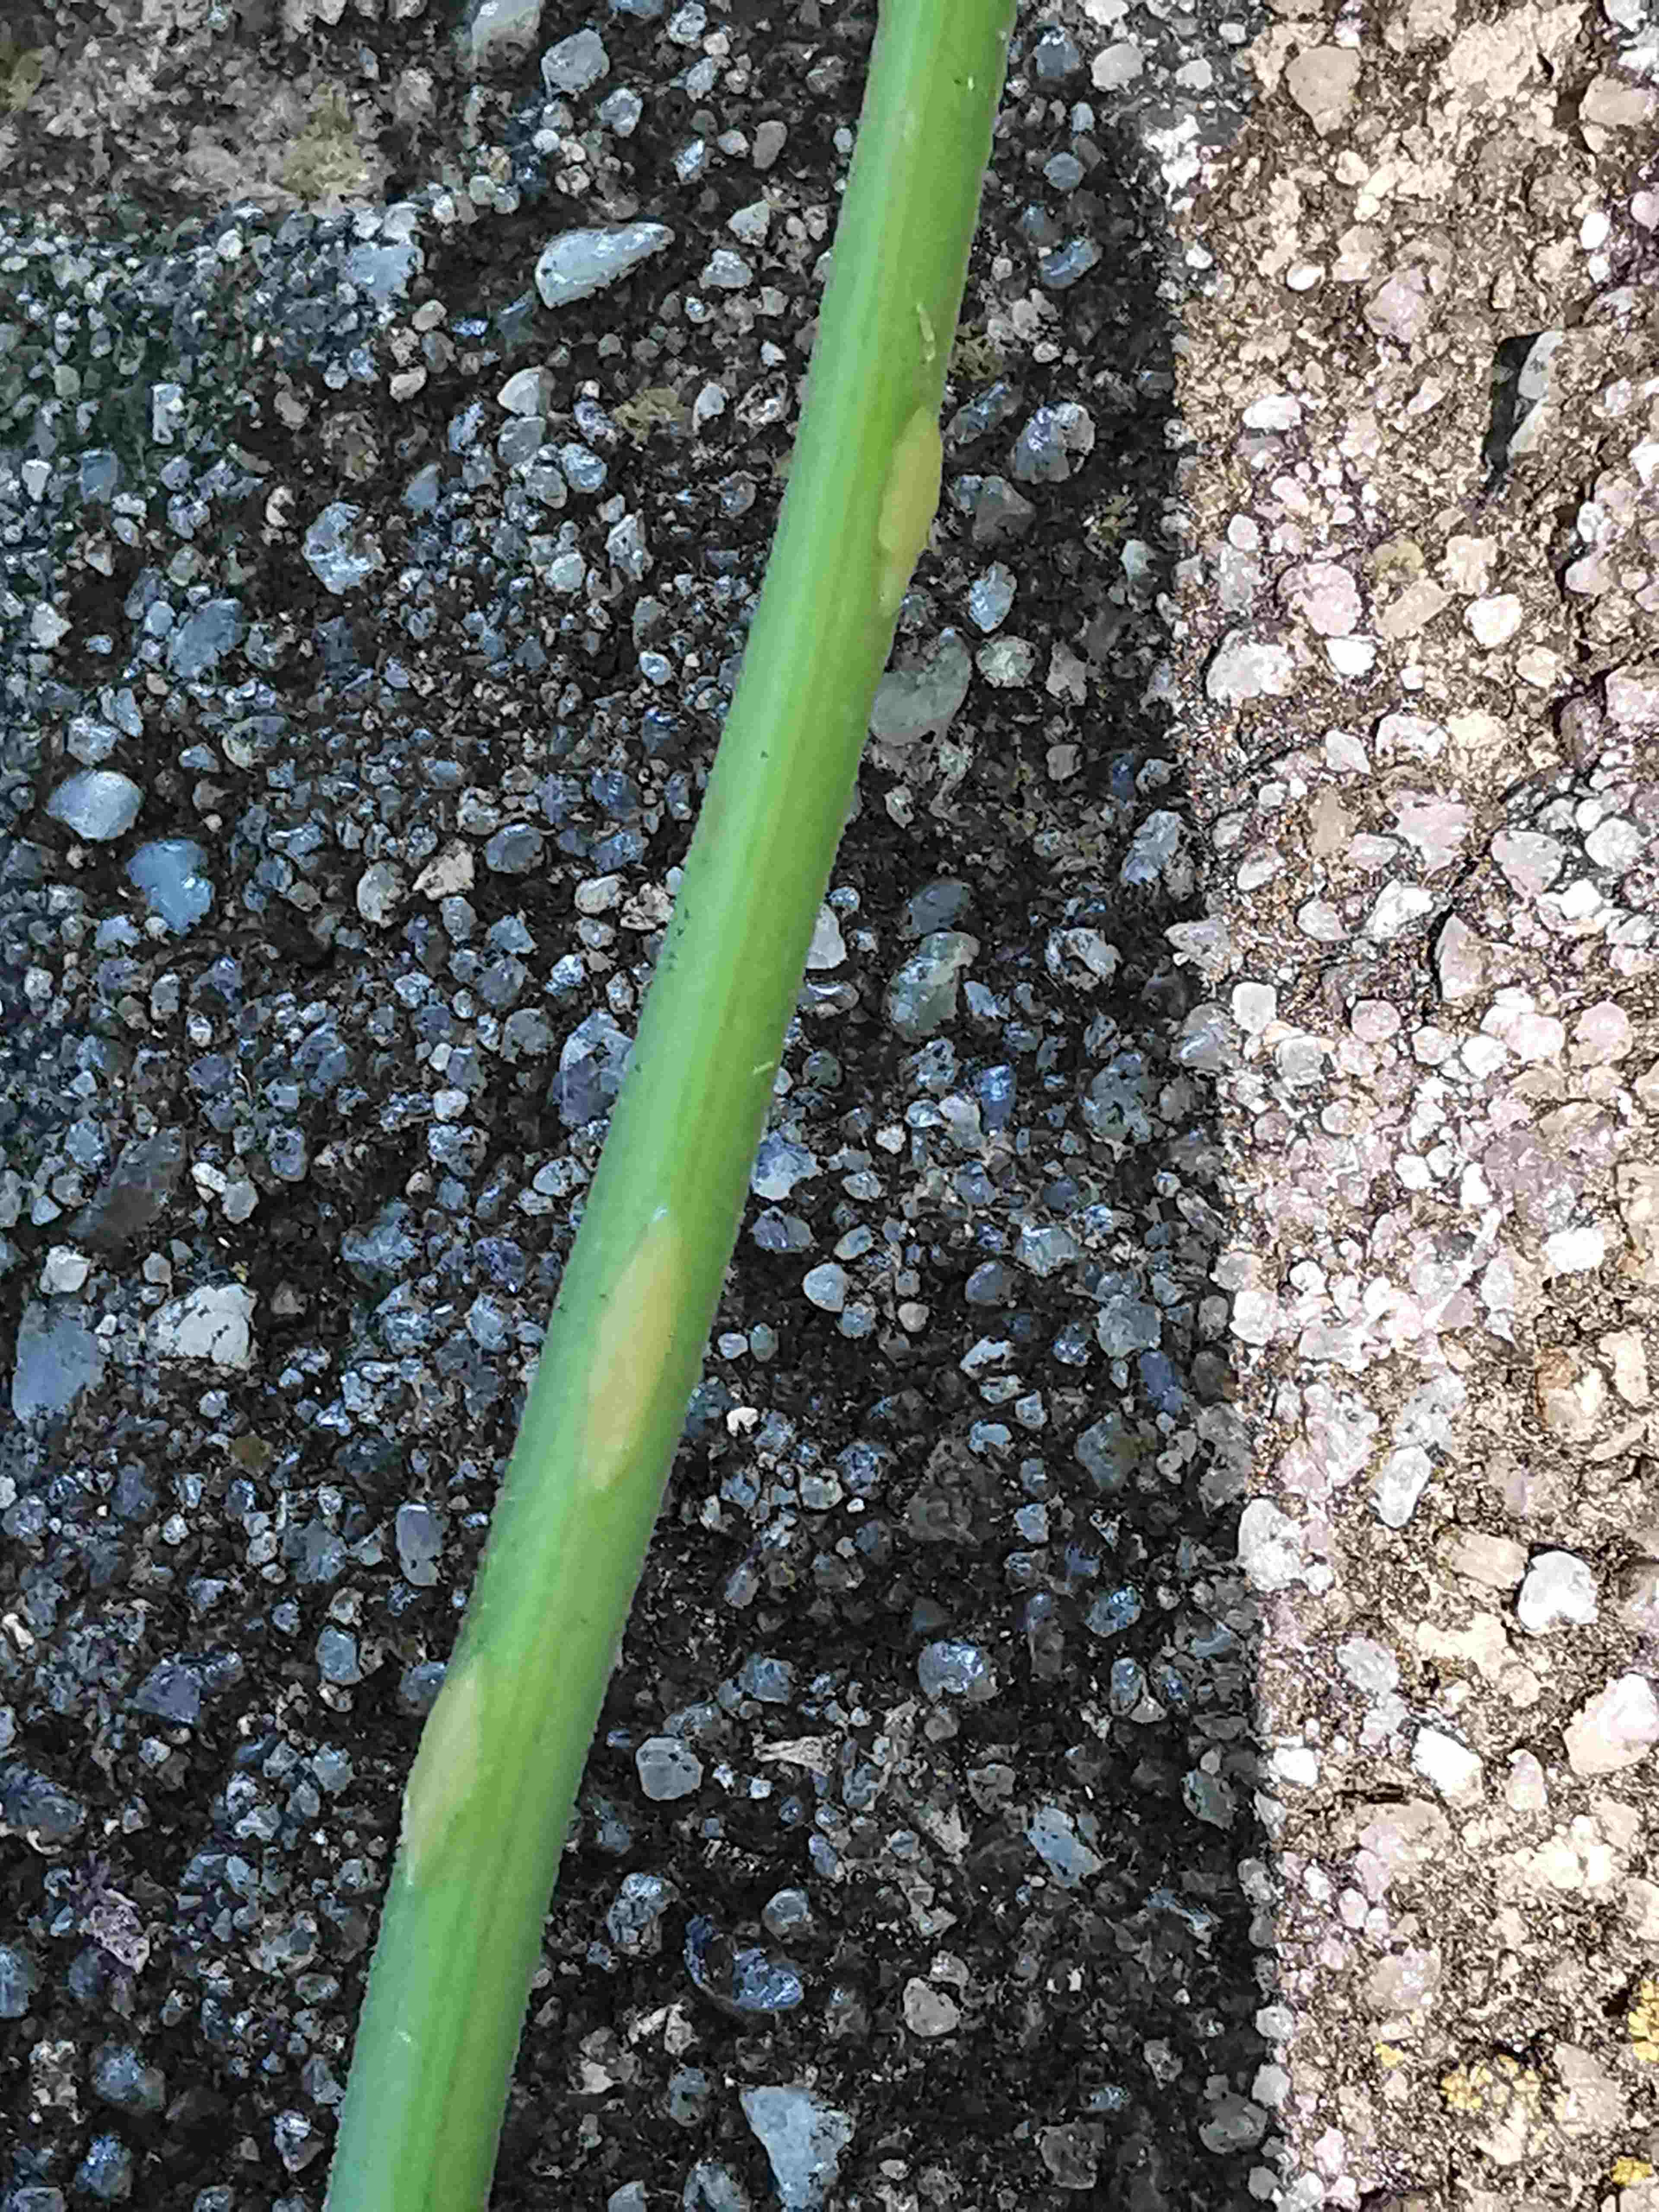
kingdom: Fungi
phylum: Ascomycota
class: Taphrinomycetes
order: Taphrinales
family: Taphrinaceae
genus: Protomyces
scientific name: Protomyces macrosporus
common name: skvalderkål-vablesæk
